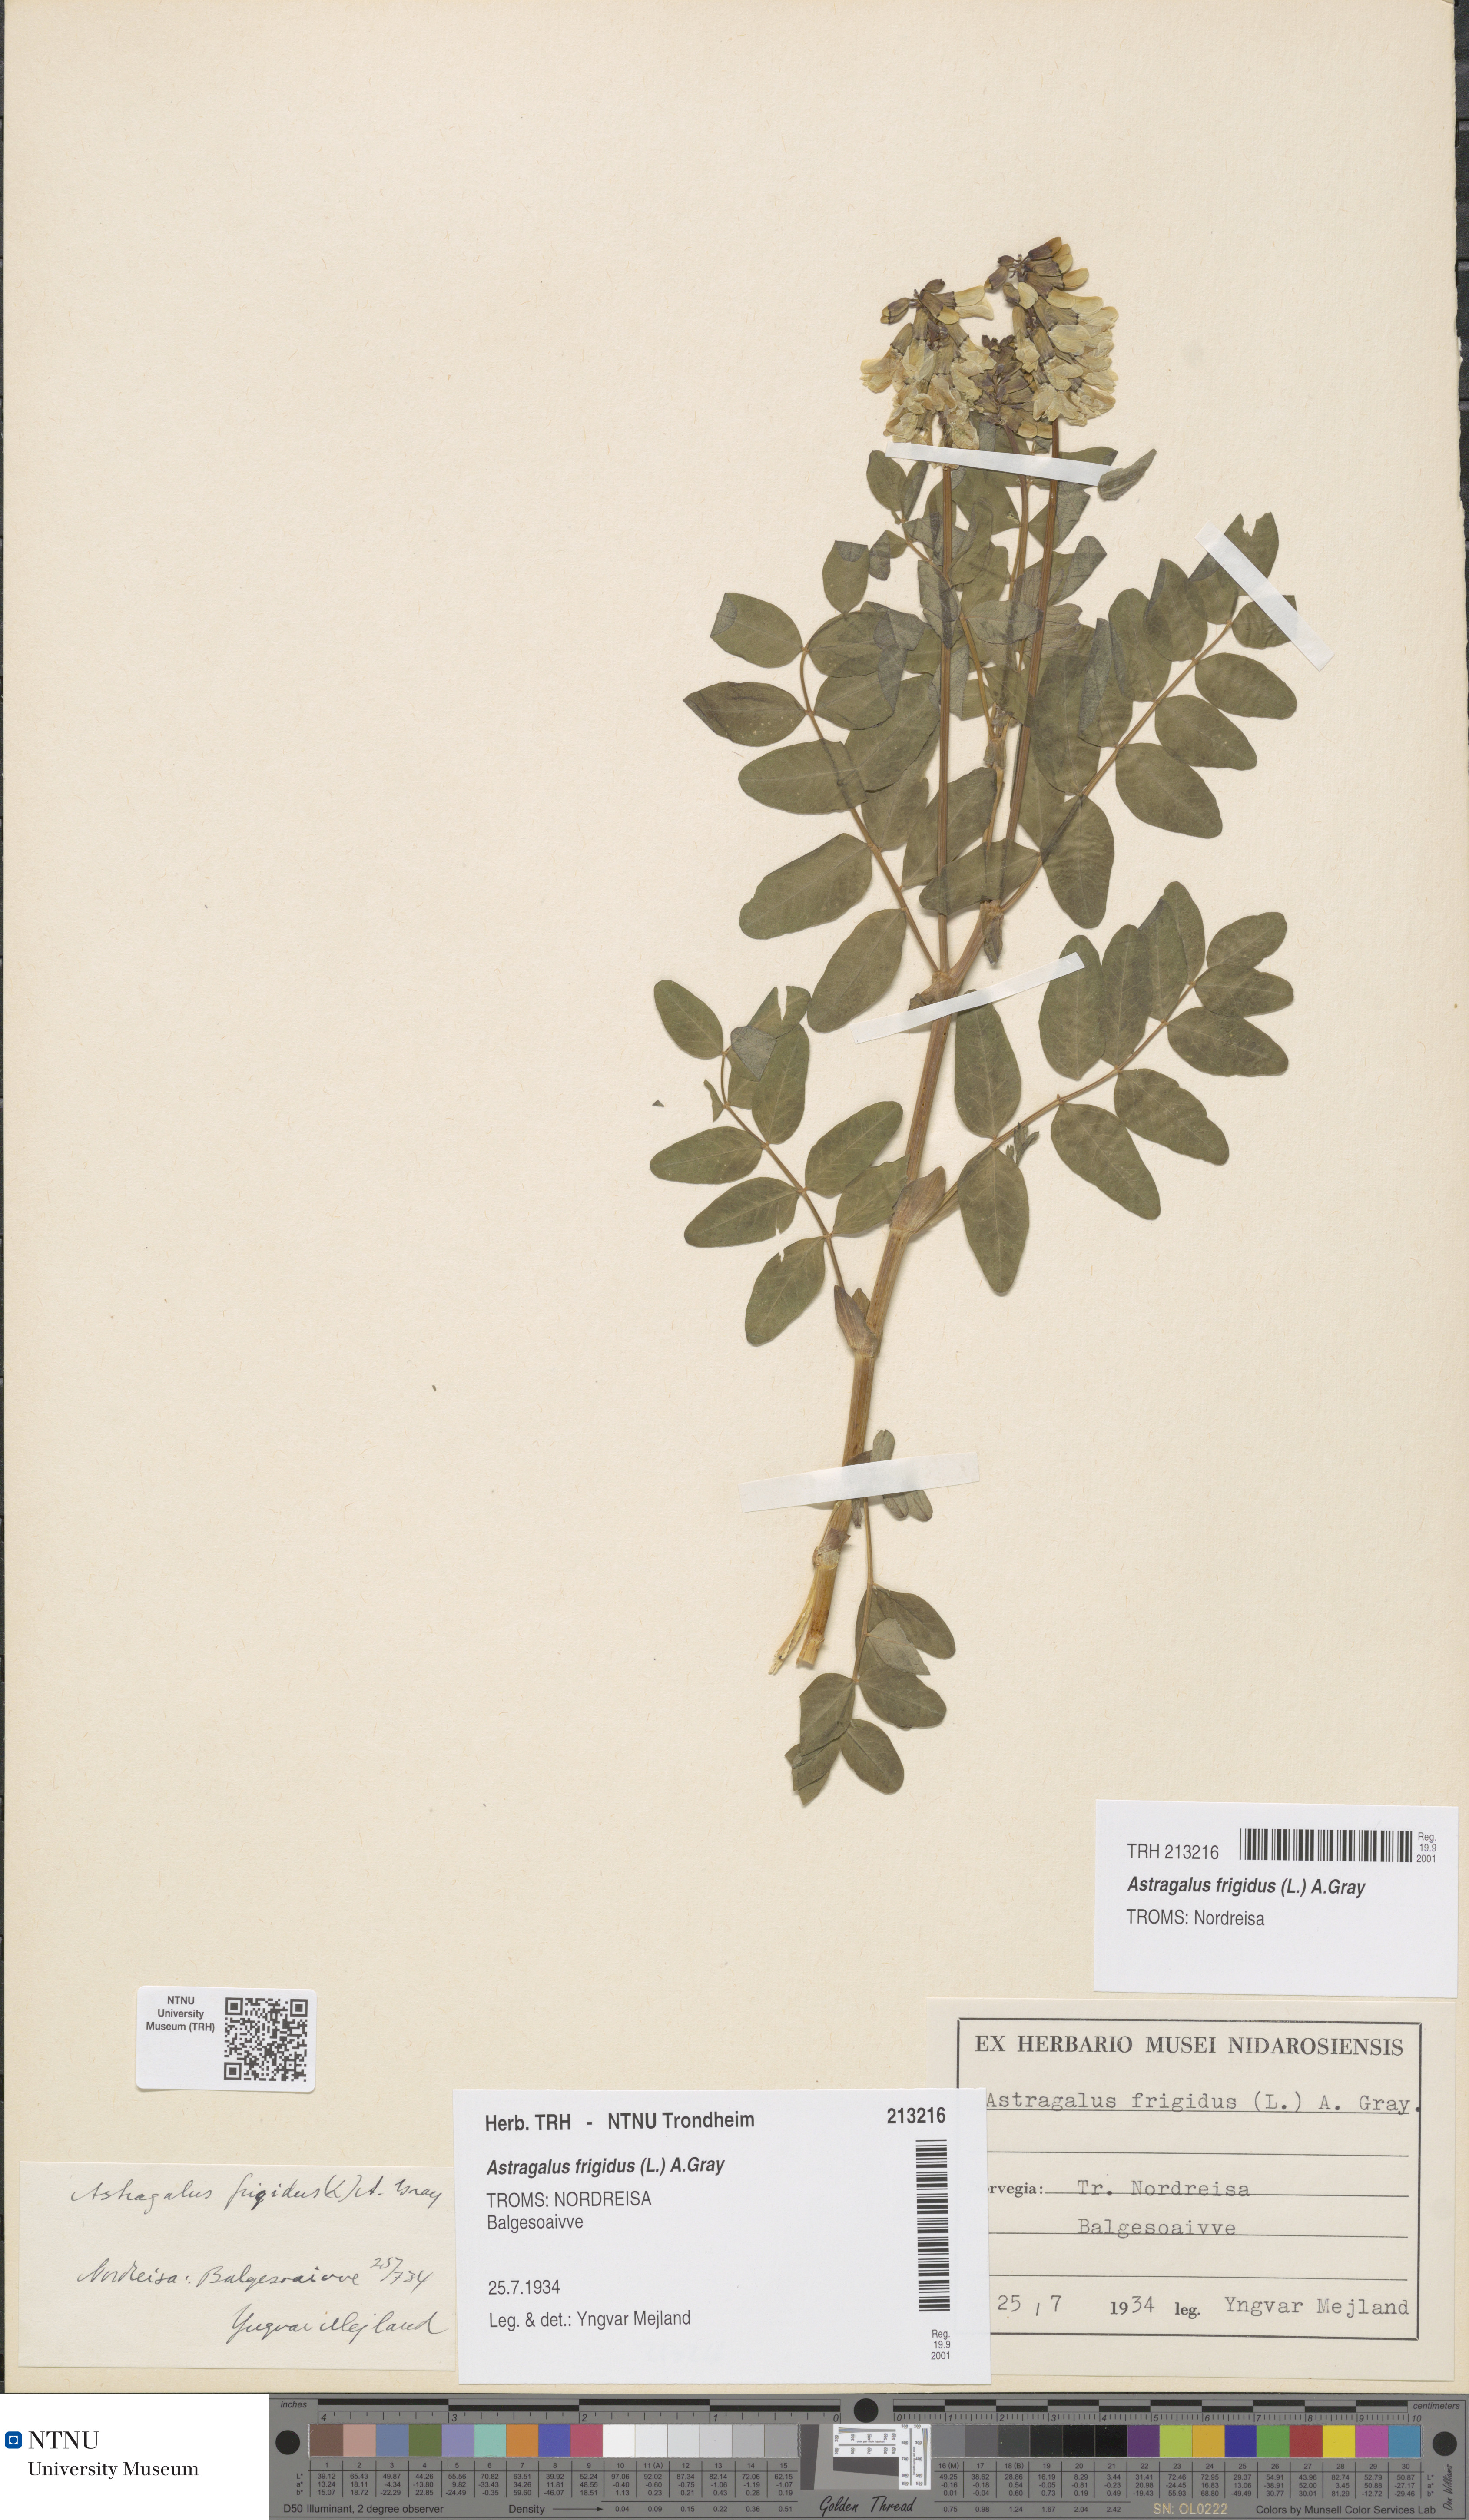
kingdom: Plantae
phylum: Tracheophyta
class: Magnoliopsida
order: Fabales
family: Fabaceae
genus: Astragalus
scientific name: Astragalus frigidus
